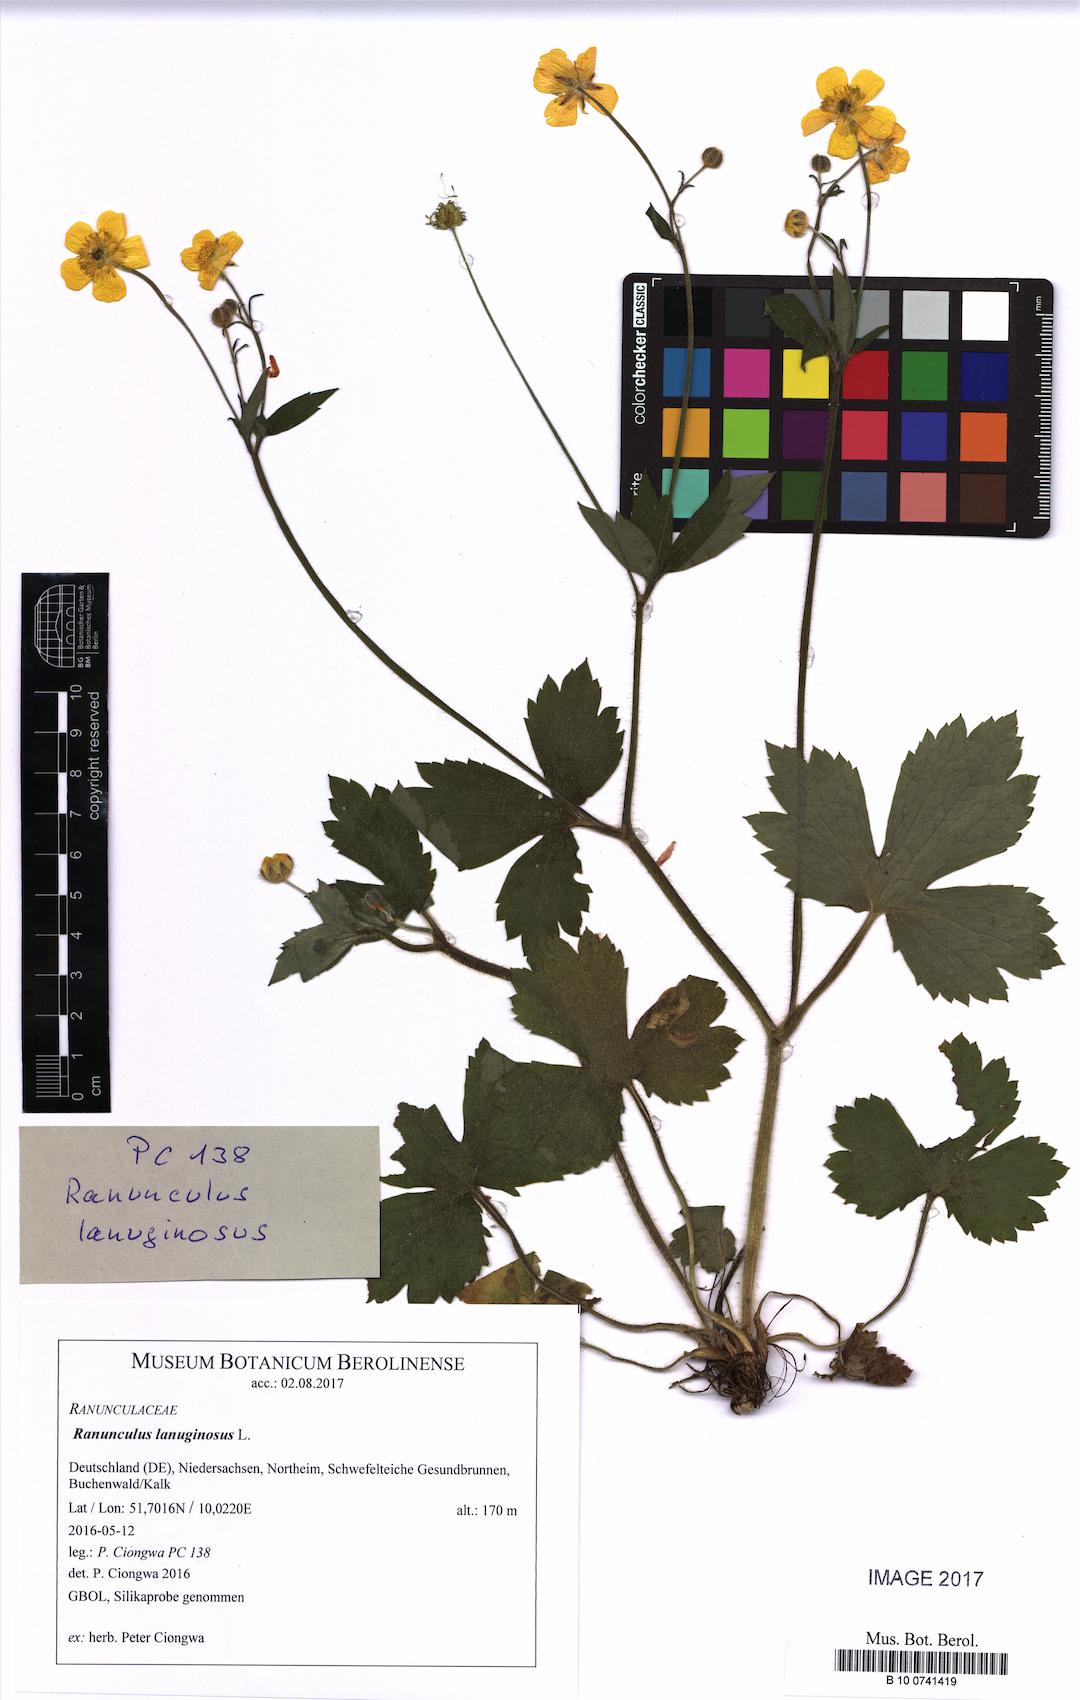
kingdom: Plantae
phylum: Tracheophyta
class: Magnoliopsida
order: Ranunculales
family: Ranunculaceae
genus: Ranunculus
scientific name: Ranunculus lanuginosus
